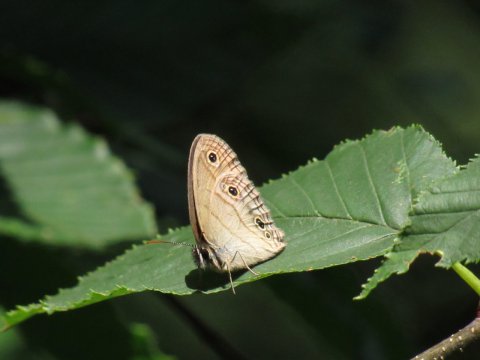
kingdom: Animalia
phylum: Arthropoda
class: Insecta
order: Lepidoptera
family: Nymphalidae
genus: Euptychia
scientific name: Euptychia cymela
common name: Little Wood Satyr
